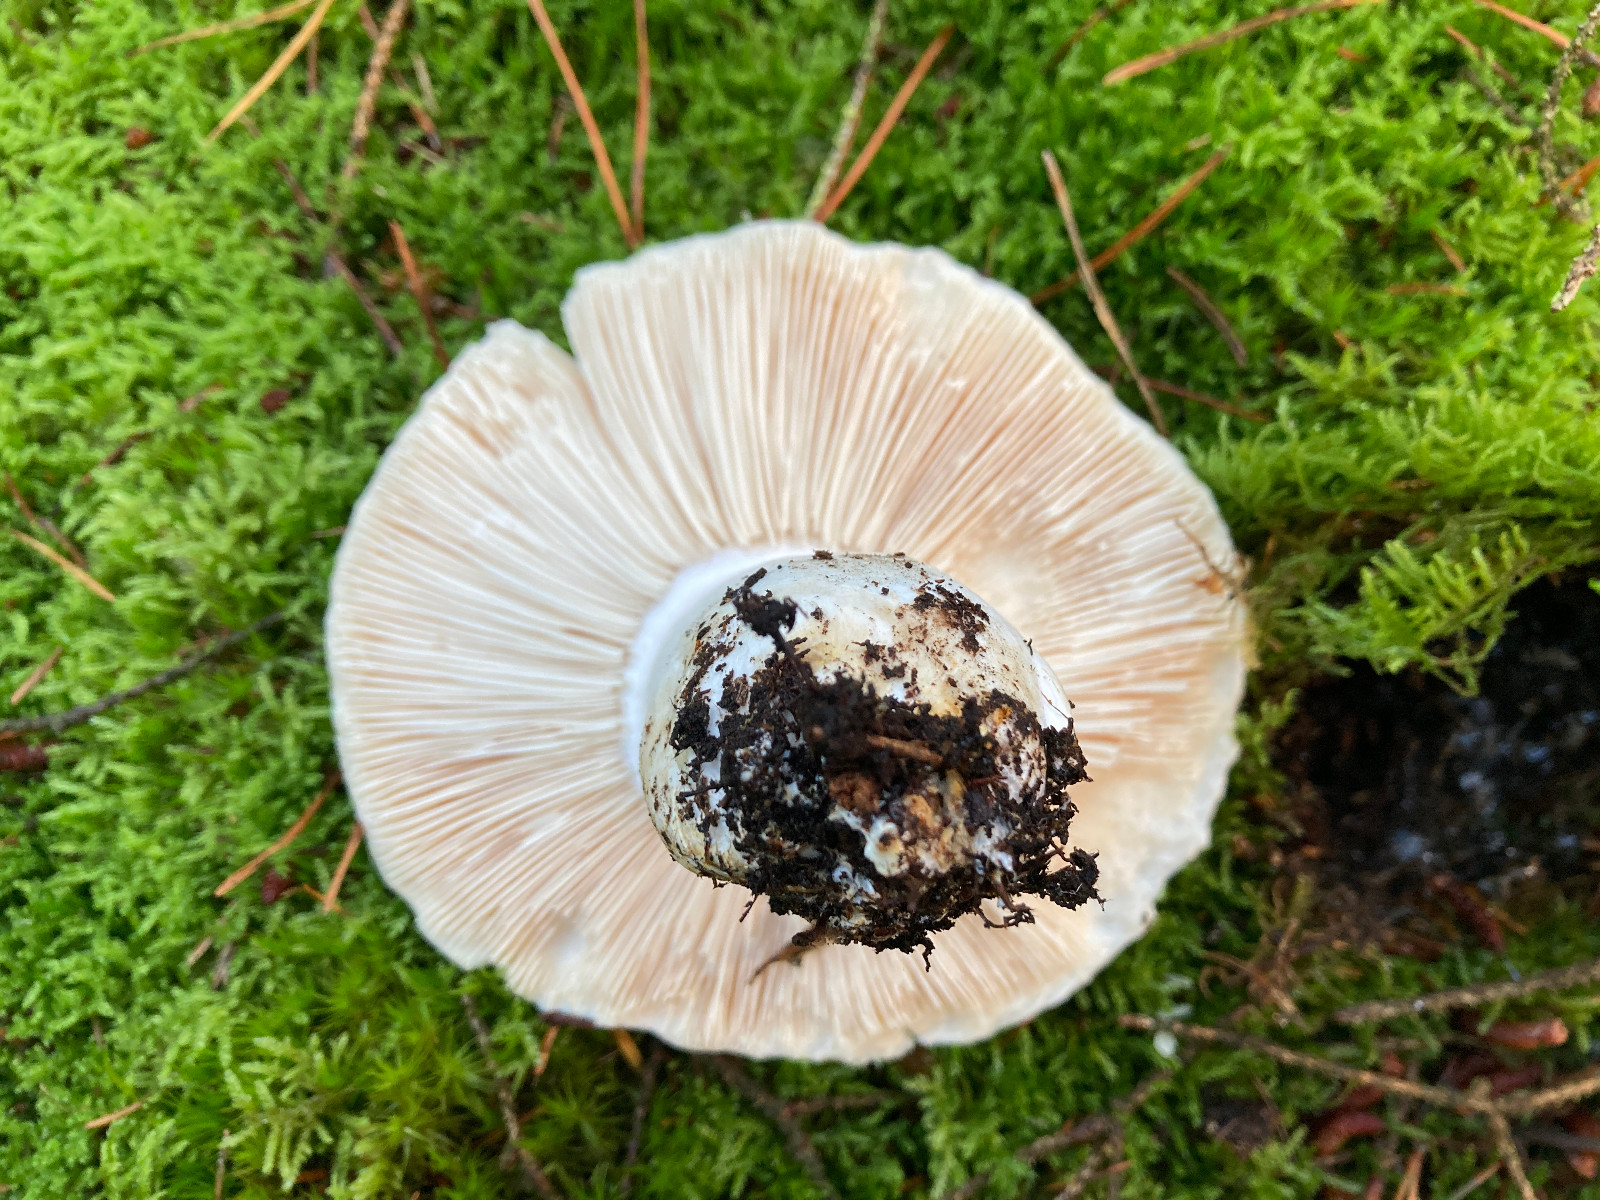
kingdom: Fungi
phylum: Basidiomycota
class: Agaricomycetes
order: Russulales
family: Russulaceae
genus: Russula
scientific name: Russula
